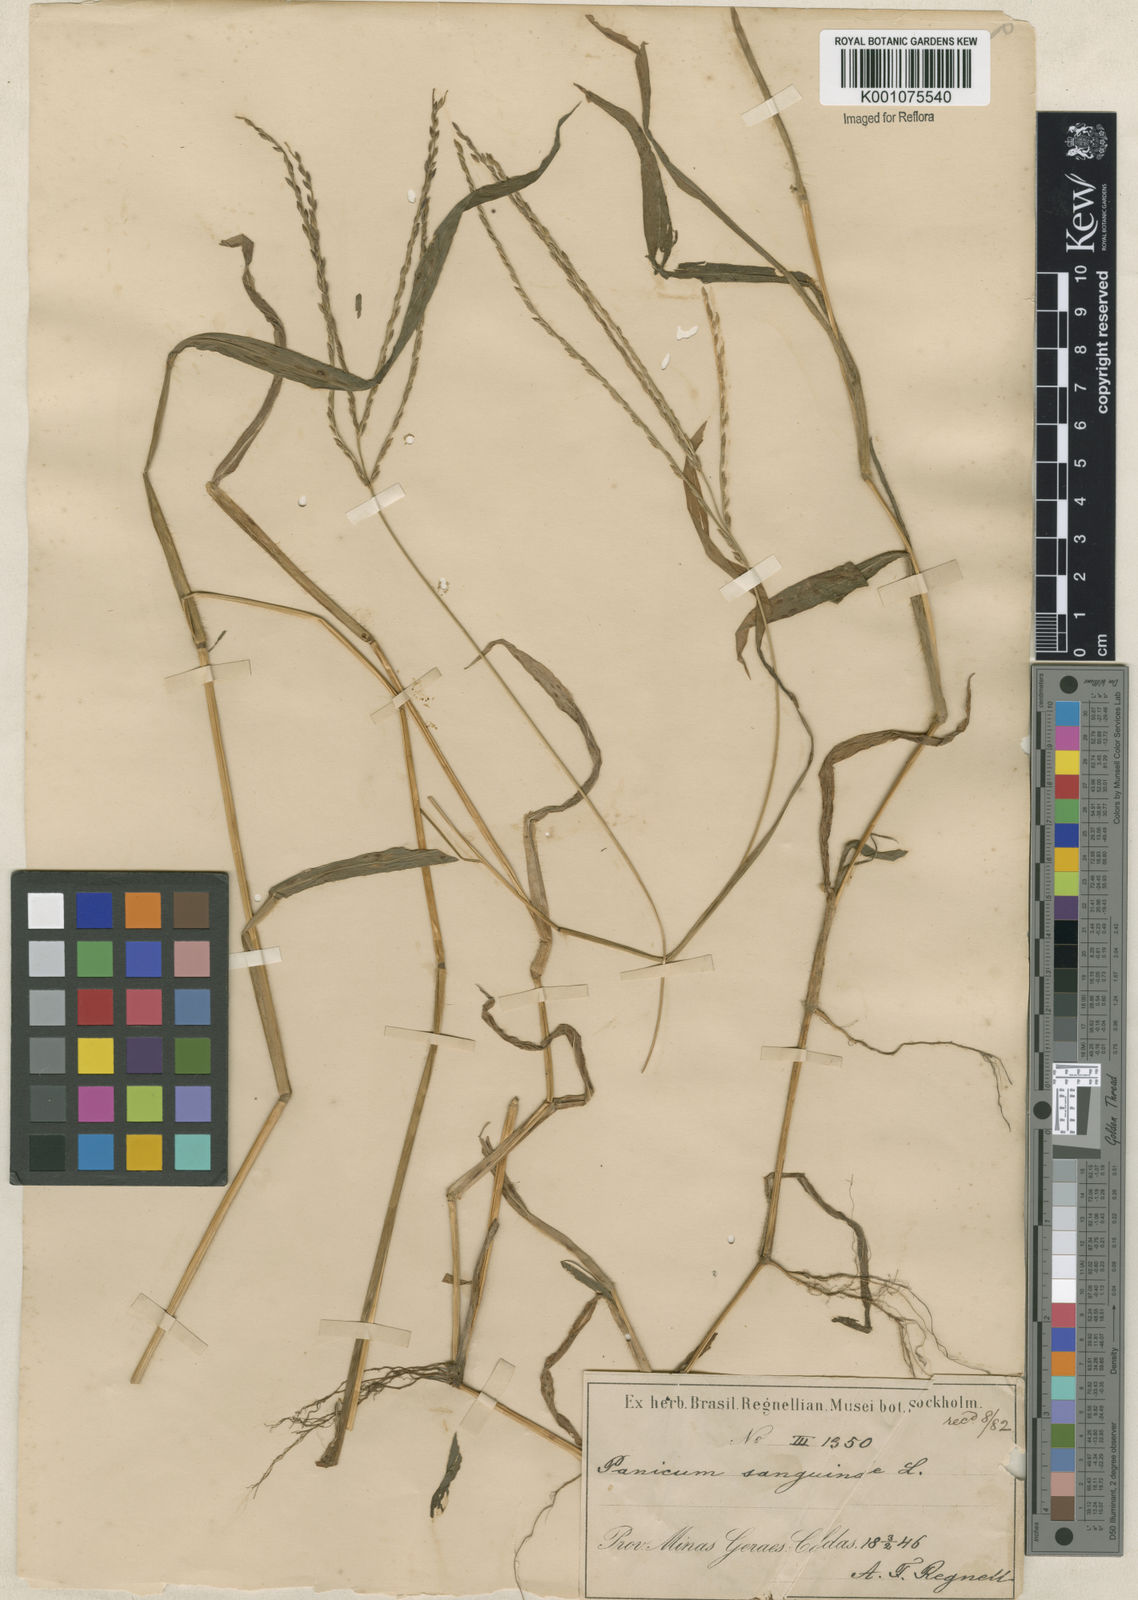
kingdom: Plantae
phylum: Tracheophyta
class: Liliopsida
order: Poales
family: Poaceae
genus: Digitaria
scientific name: Digitaria ciliaris
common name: Tropical finger-grass
